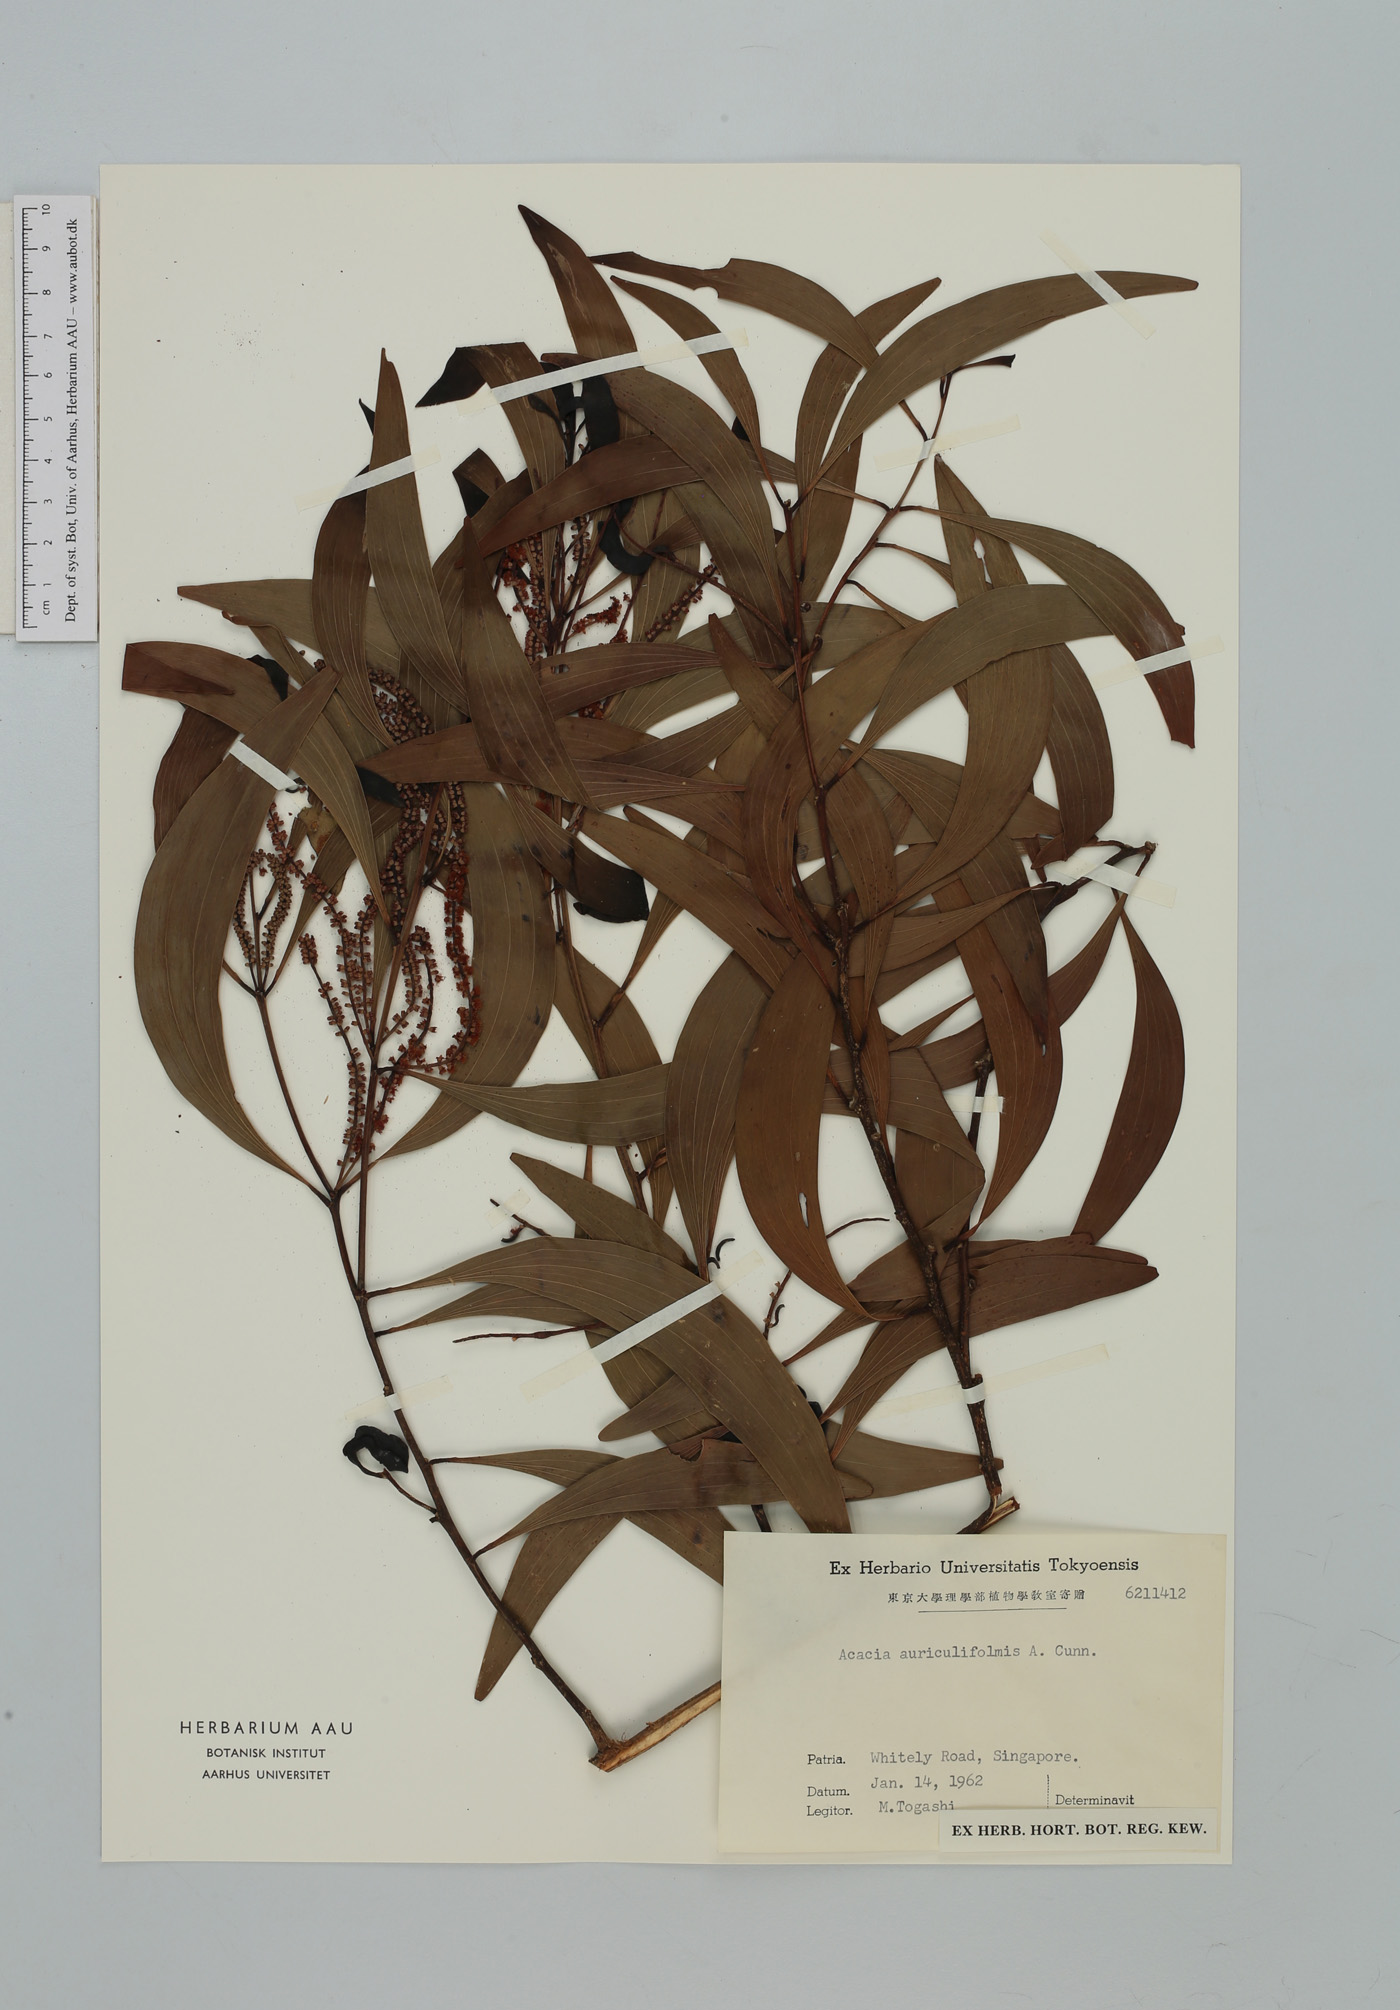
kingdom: Plantae
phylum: Tracheophyta
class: Magnoliopsida
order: Fabales
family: Fabaceae
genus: Acacia
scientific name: Acacia auriculiformis
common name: Earleaf acacia
